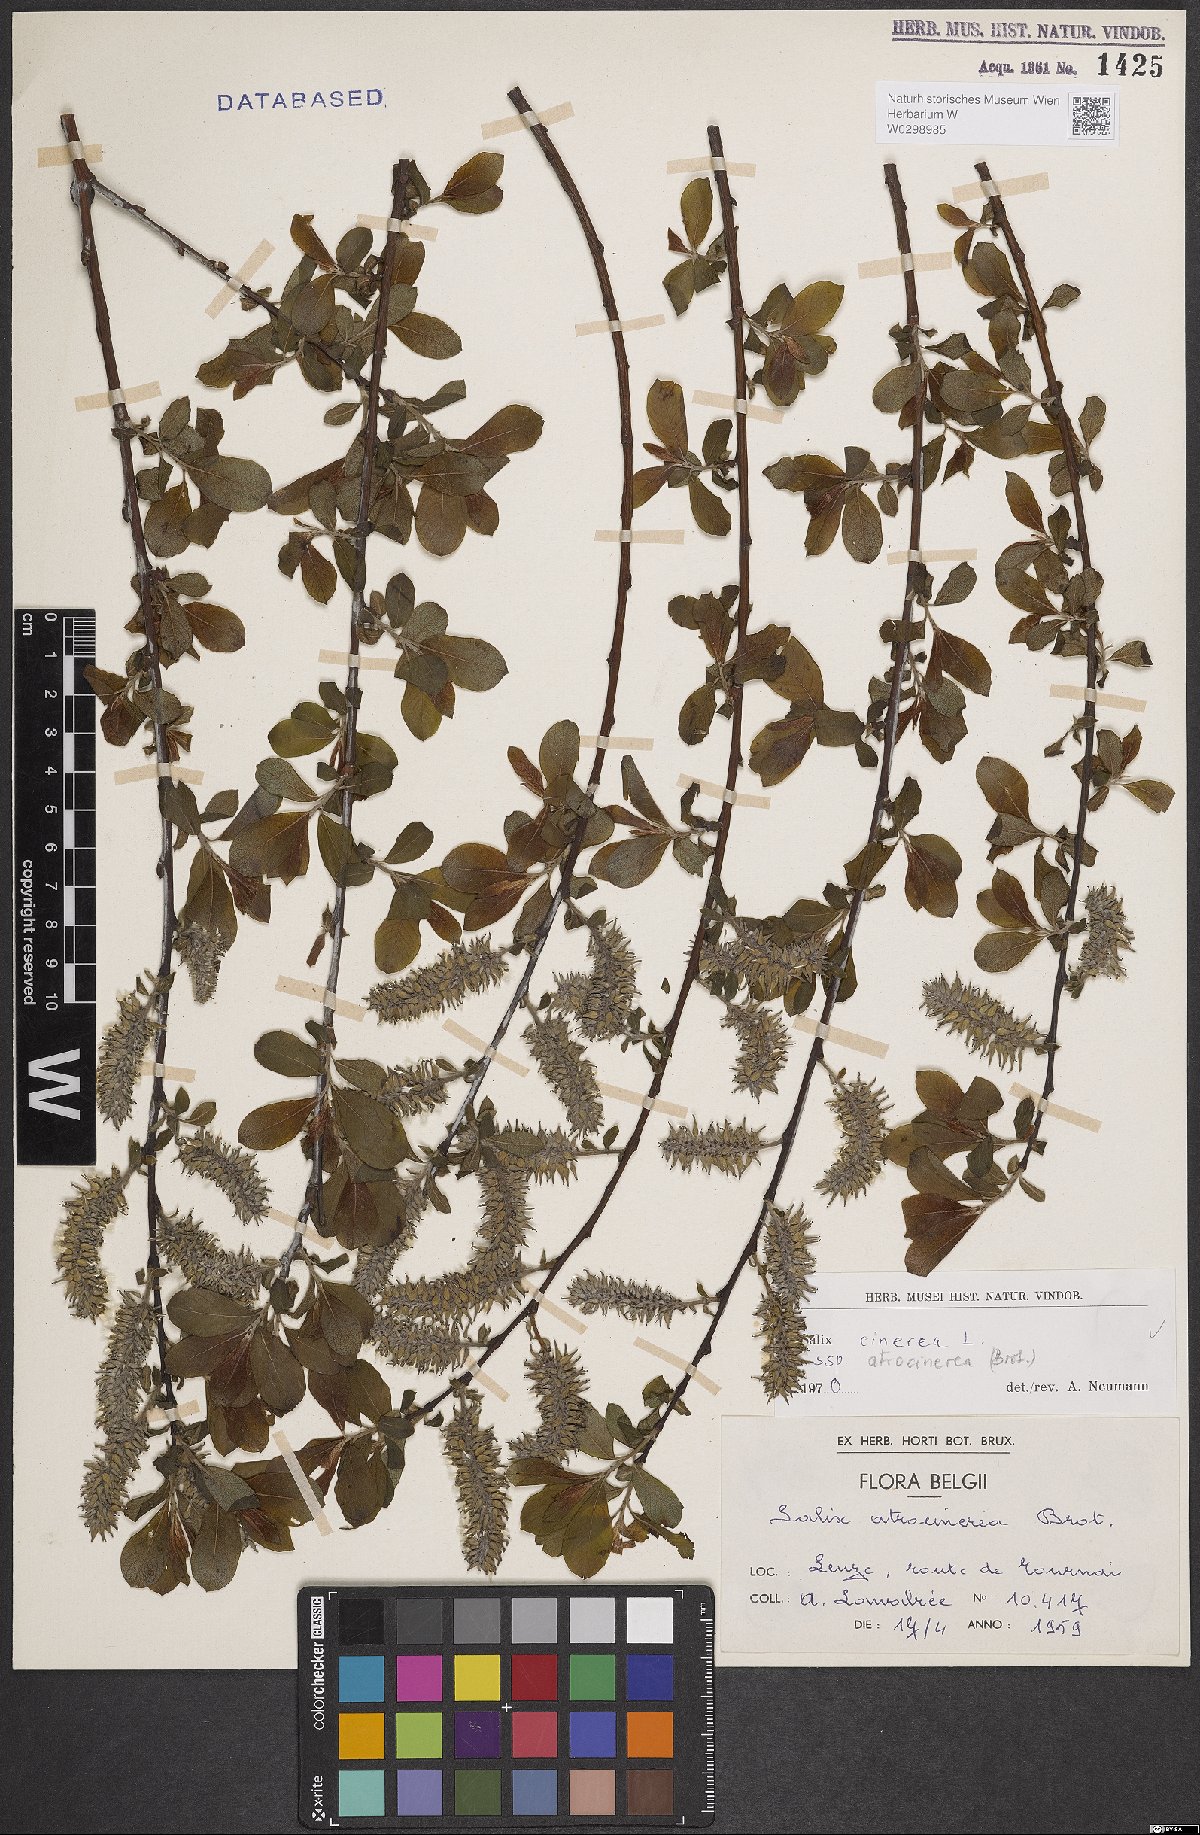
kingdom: Plantae
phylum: Tracheophyta
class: Magnoliopsida
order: Malpighiales
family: Salicaceae
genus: Salix
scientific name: Salix atrocinerea
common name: Rusty willow
